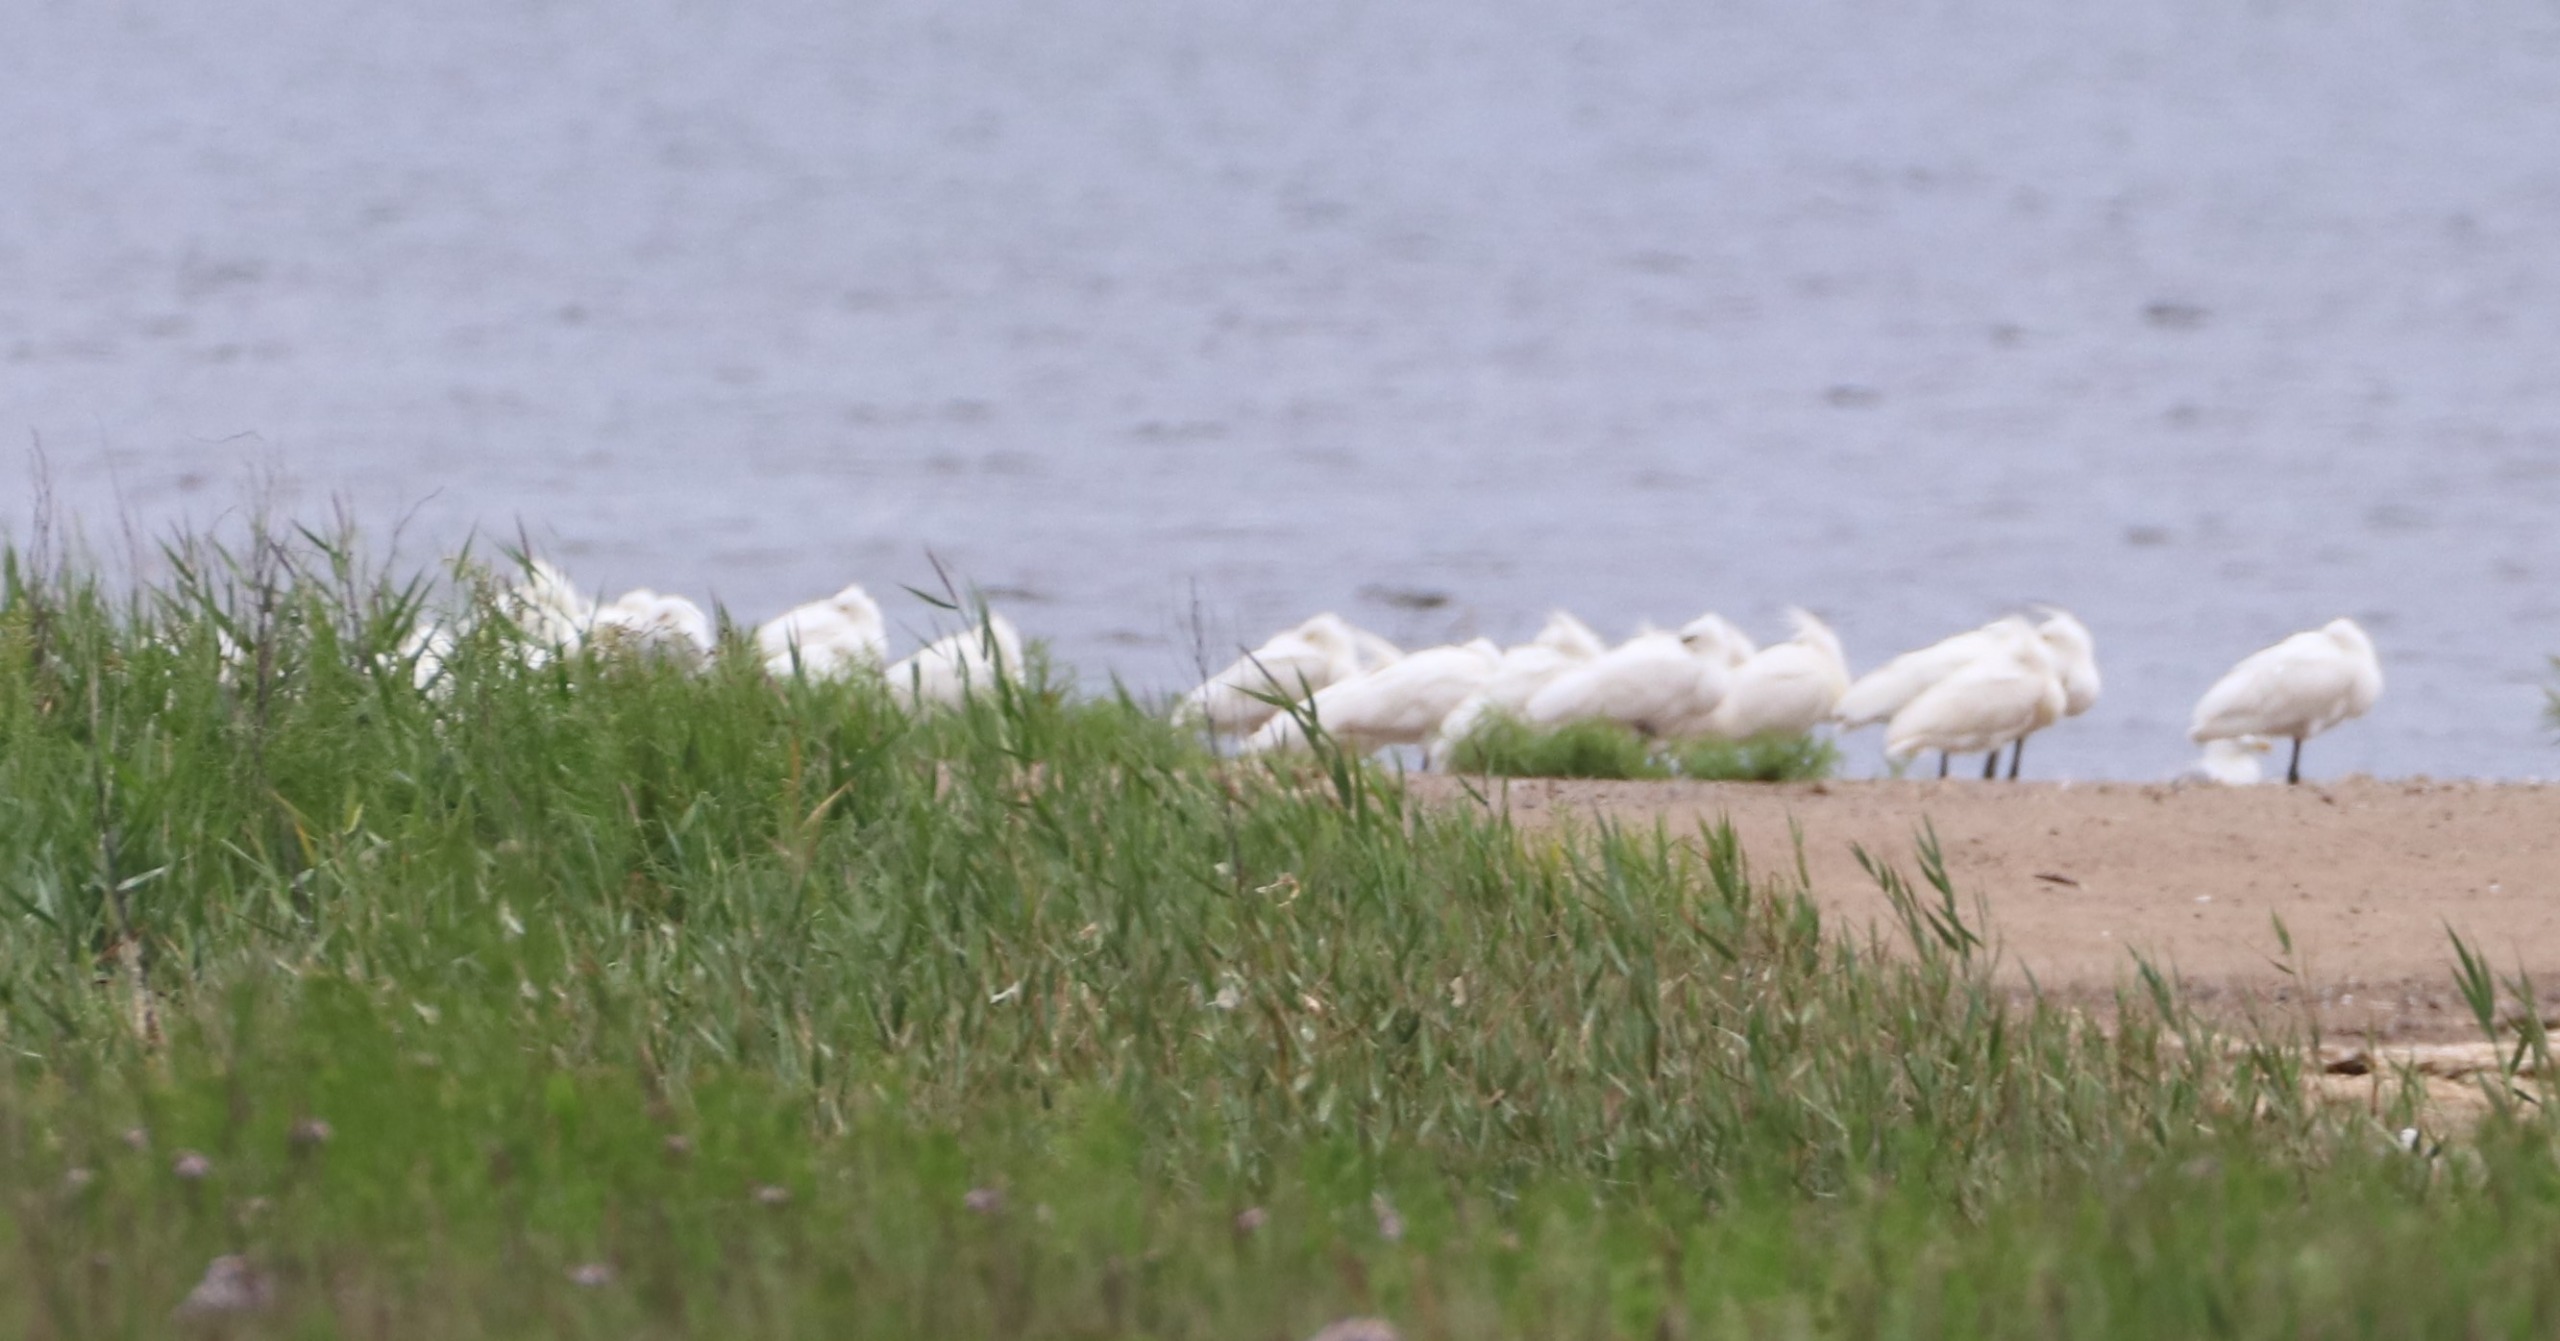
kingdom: Animalia
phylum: Chordata
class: Aves
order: Pelecaniformes
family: Threskiornithidae
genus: Platalea
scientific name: Platalea leucorodia
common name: Skestork
